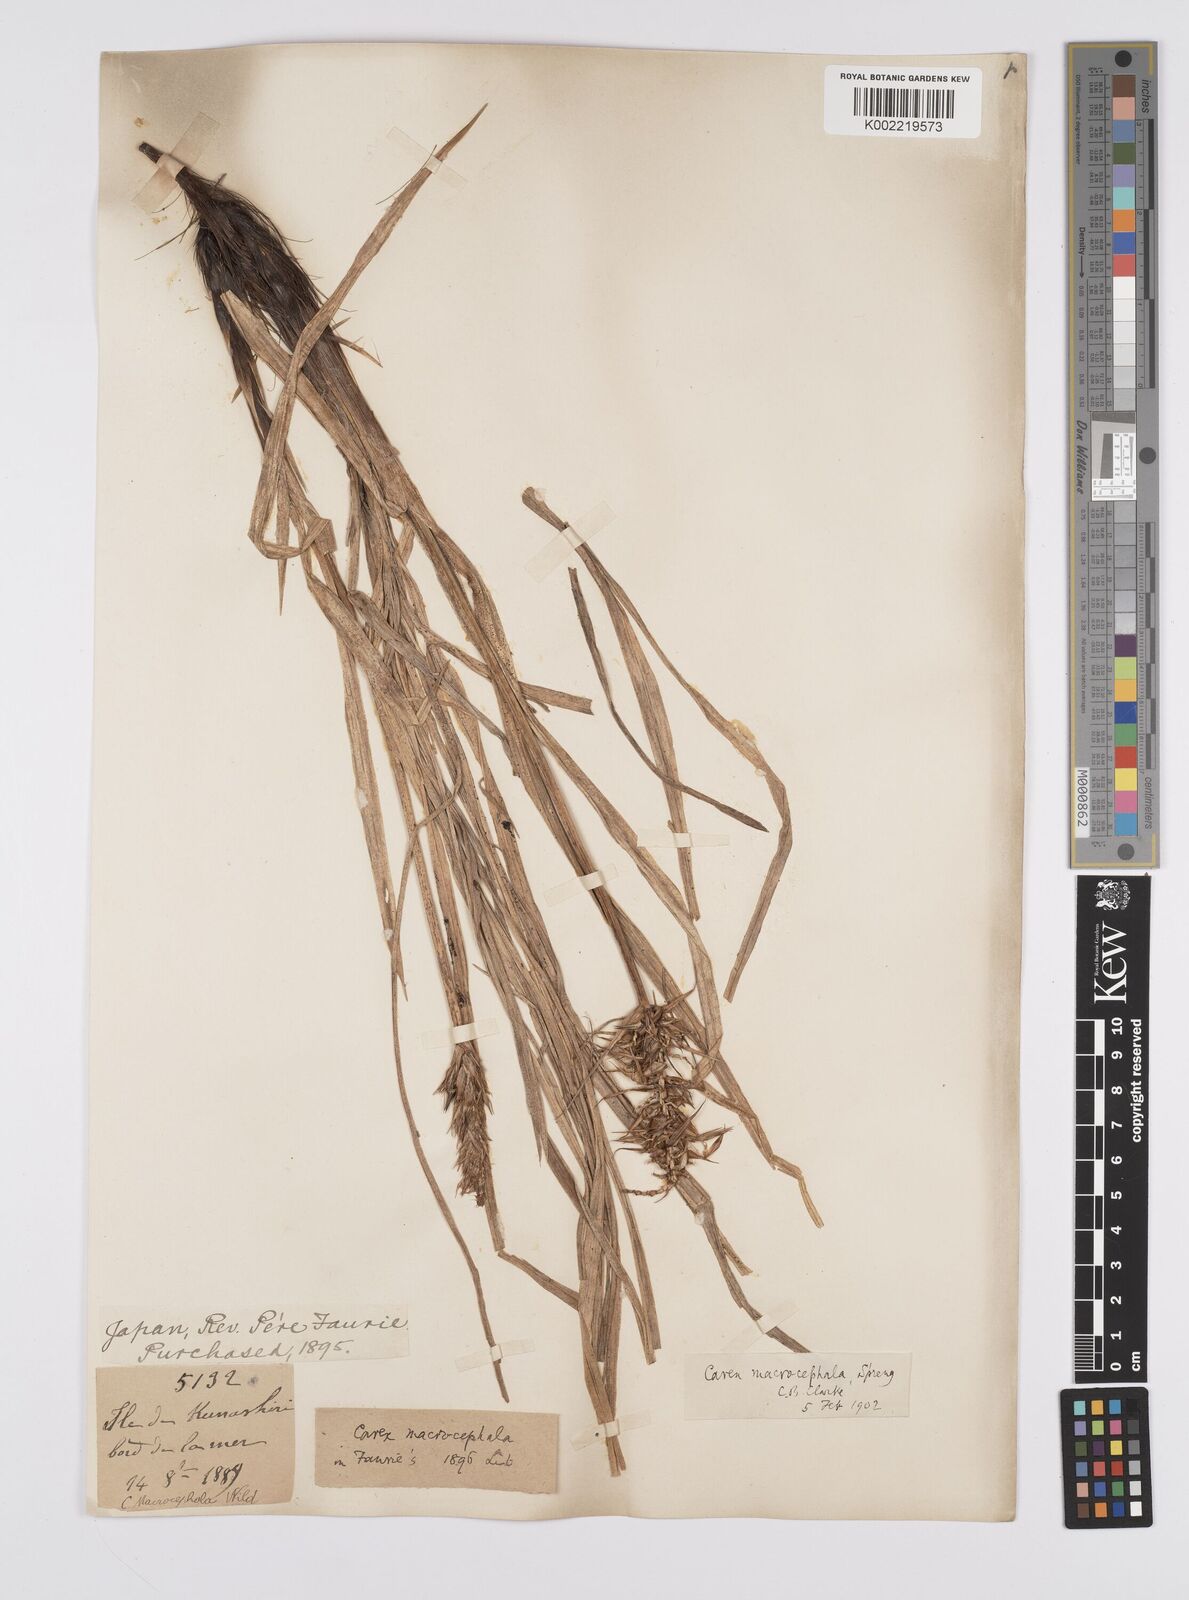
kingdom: Plantae
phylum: Tracheophyta
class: Liliopsida
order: Poales
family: Cyperaceae
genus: Carex
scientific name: Carex macrocephala
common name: Large-head sedge
